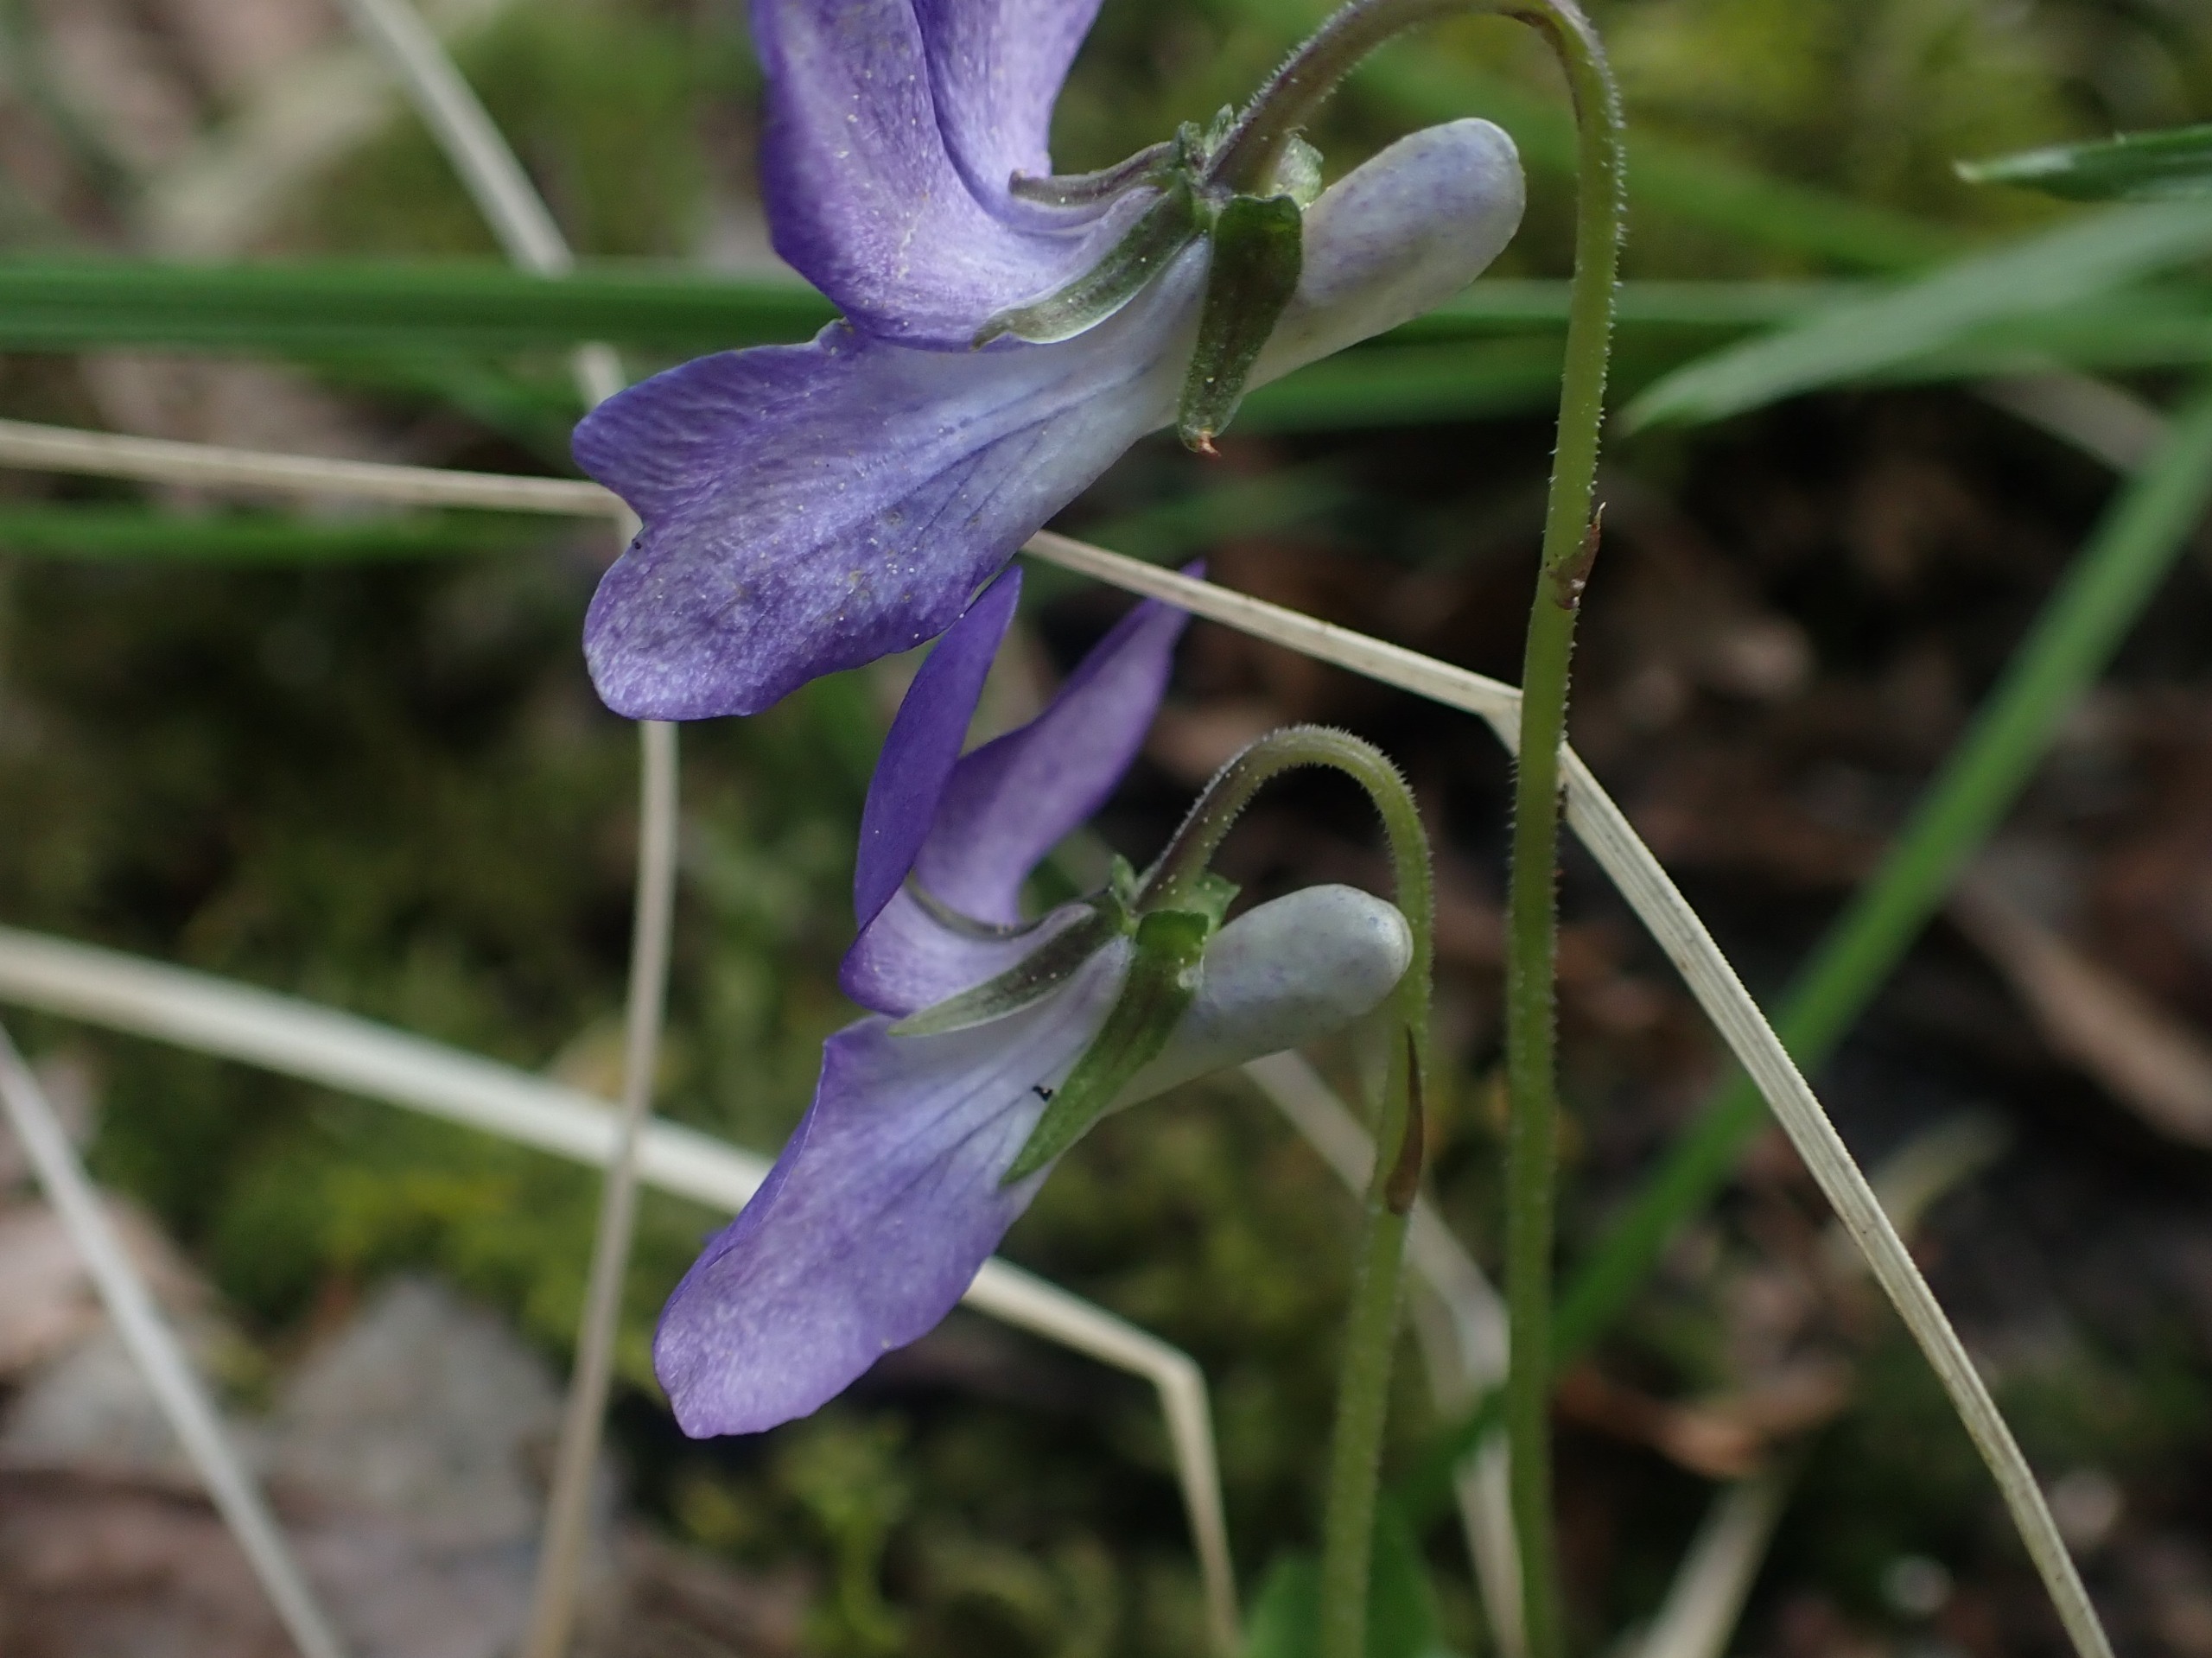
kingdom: Plantae
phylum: Tracheophyta
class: Magnoliopsida
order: Malpighiales
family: Violaceae
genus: Viola
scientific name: Viola riviniana
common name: Krat-viol
